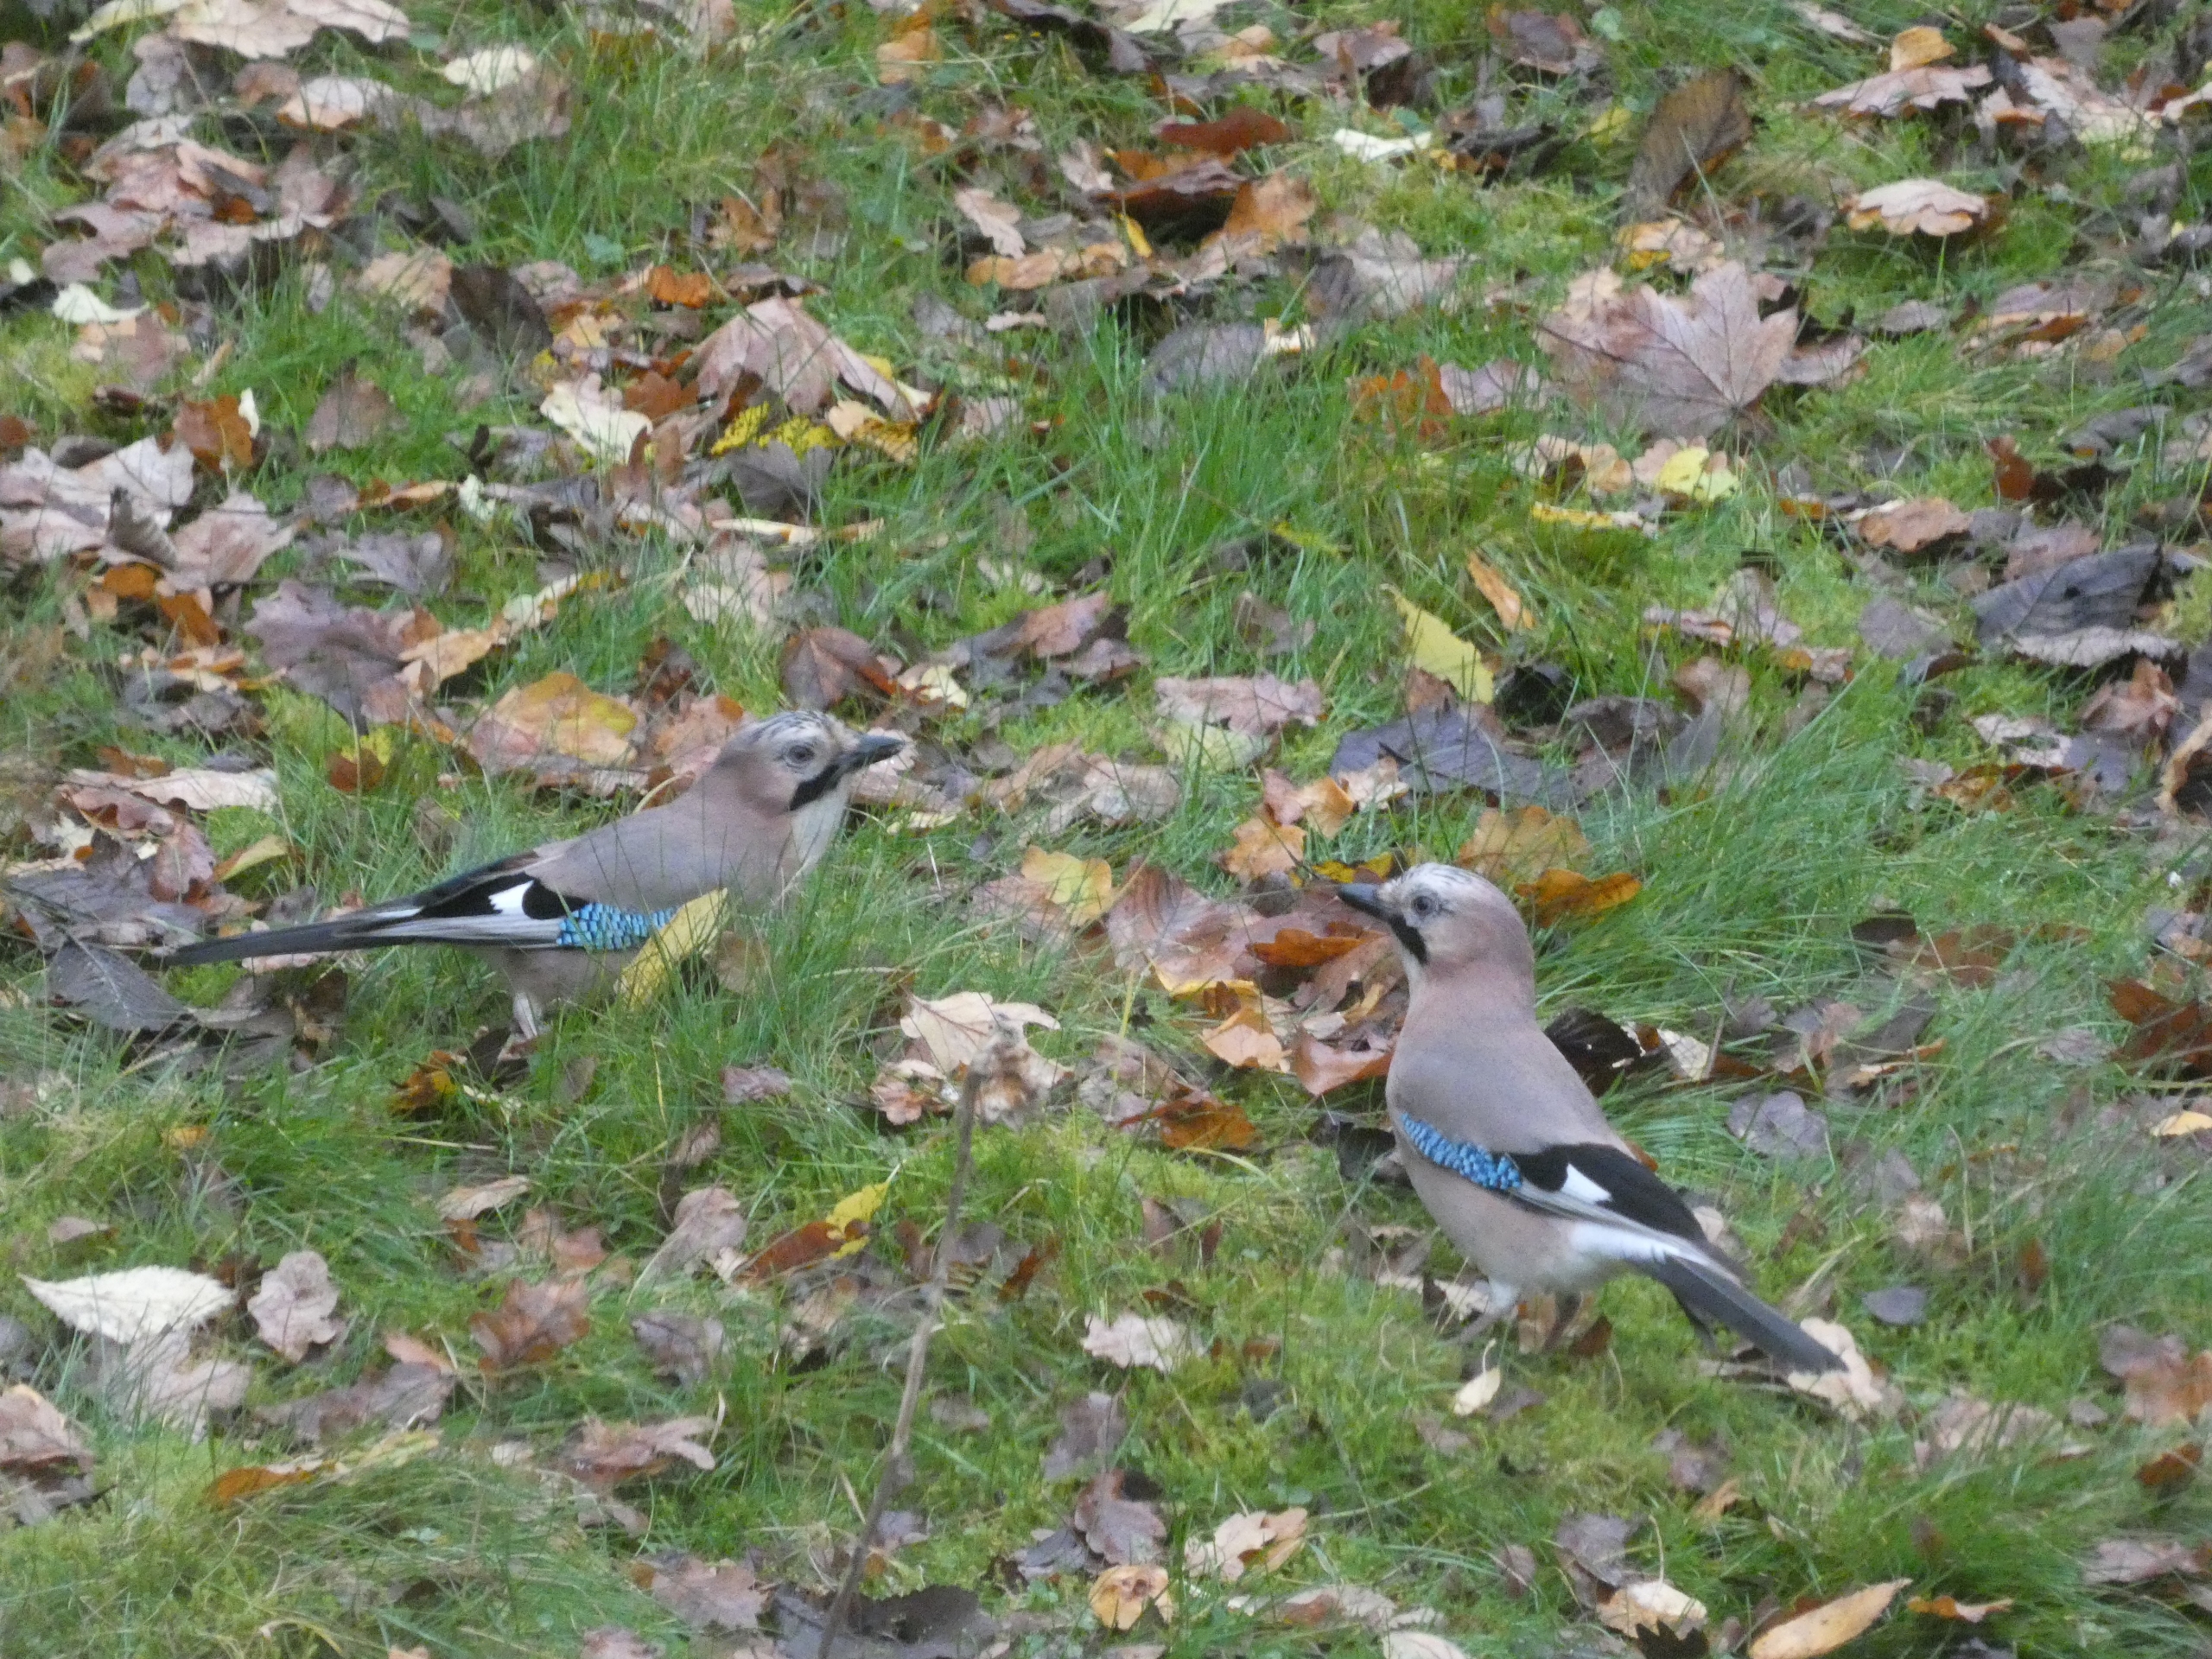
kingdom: Animalia
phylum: Chordata
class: Aves
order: Passeriformes
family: Corvidae
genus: Garrulus
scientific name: Garrulus glandarius
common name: Skovskade
